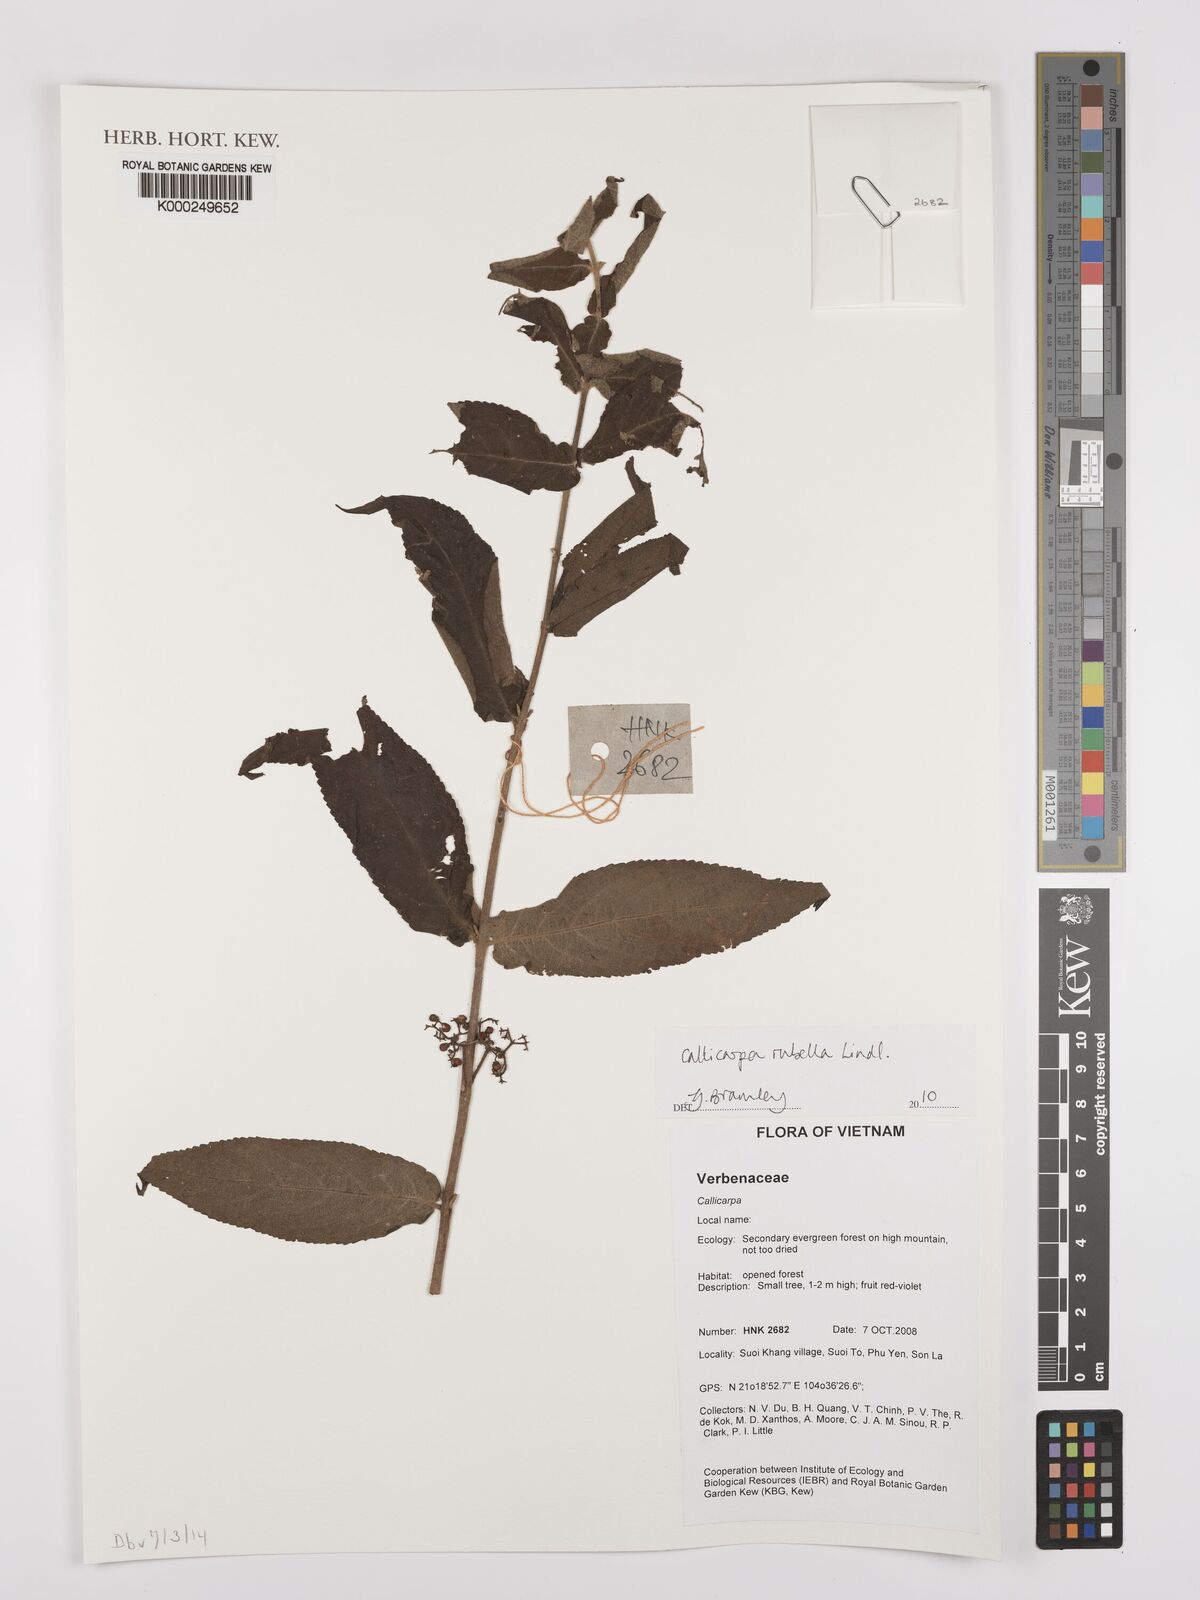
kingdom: Plantae
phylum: Tracheophyta
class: Magnoliopsida
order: Lamiales
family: Lamiaceae
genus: Callicarpa
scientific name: Callicarpa rubella
